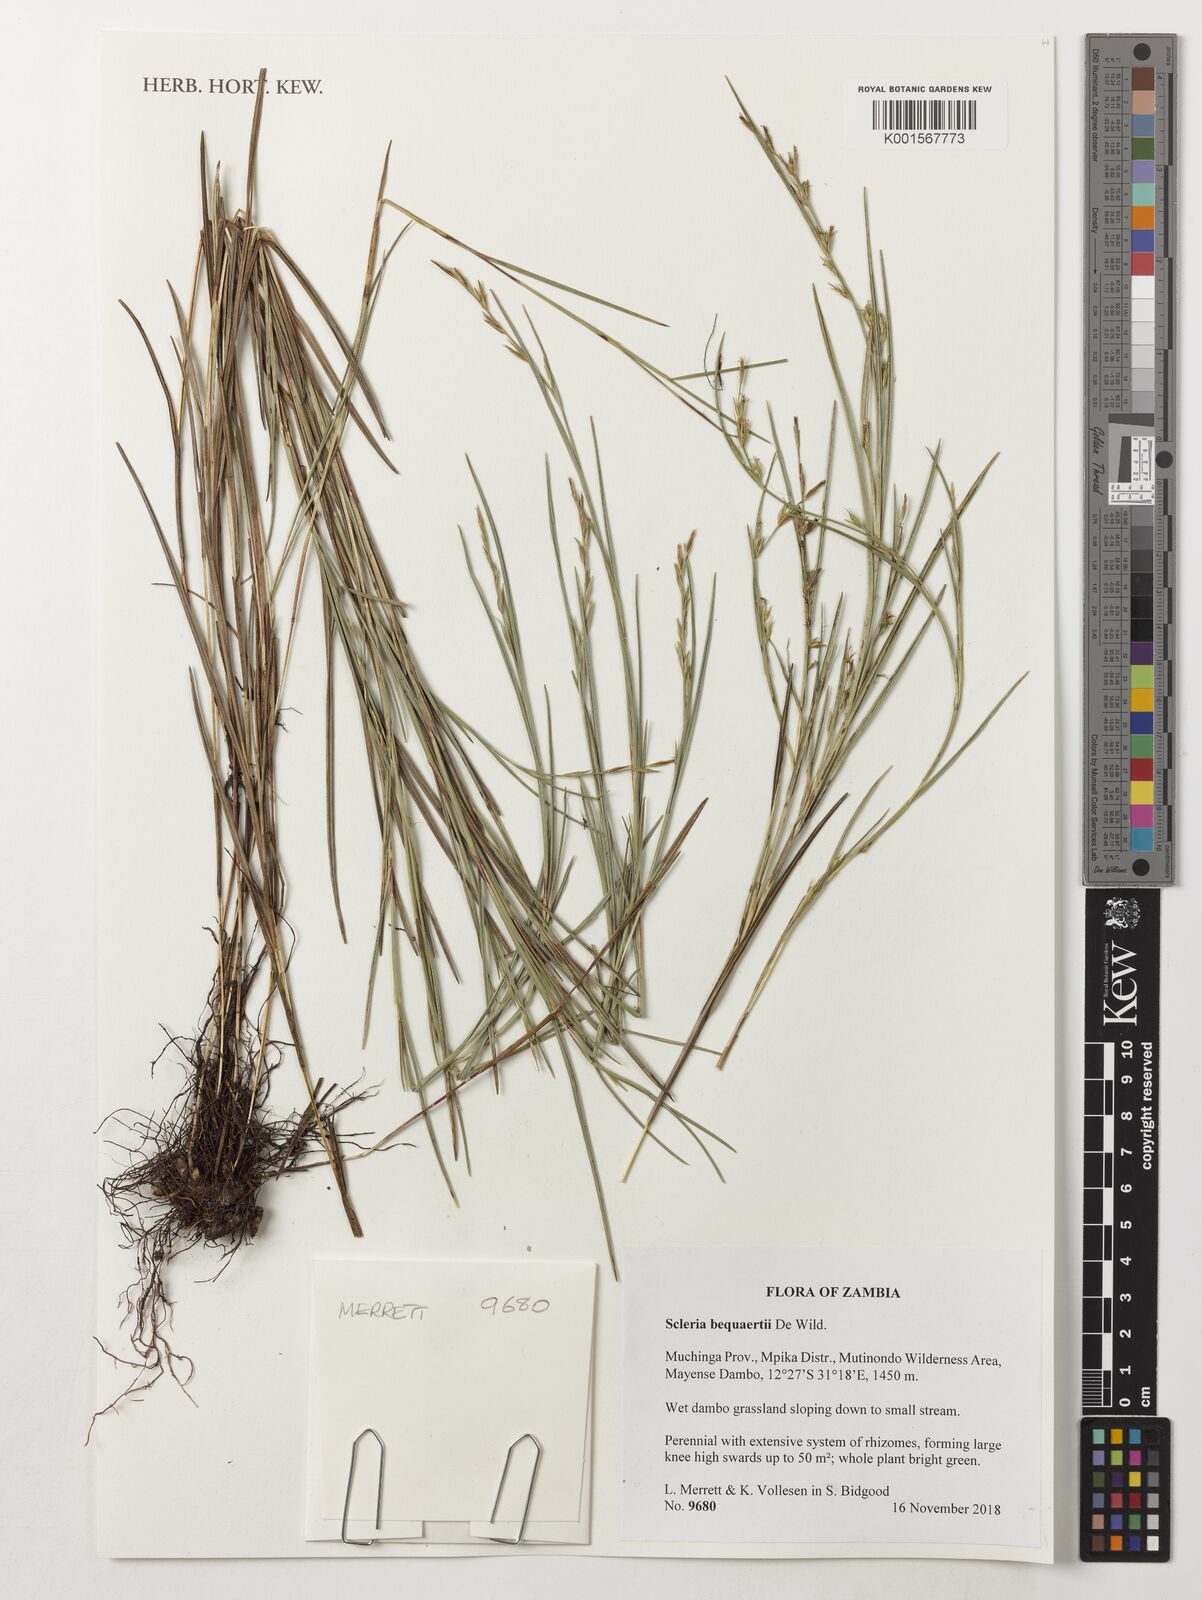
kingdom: Plantae
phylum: Tracheophyta
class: Liliopsida
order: Poales
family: Cyperaceae
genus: Scleria
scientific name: Scleria bequaertii
